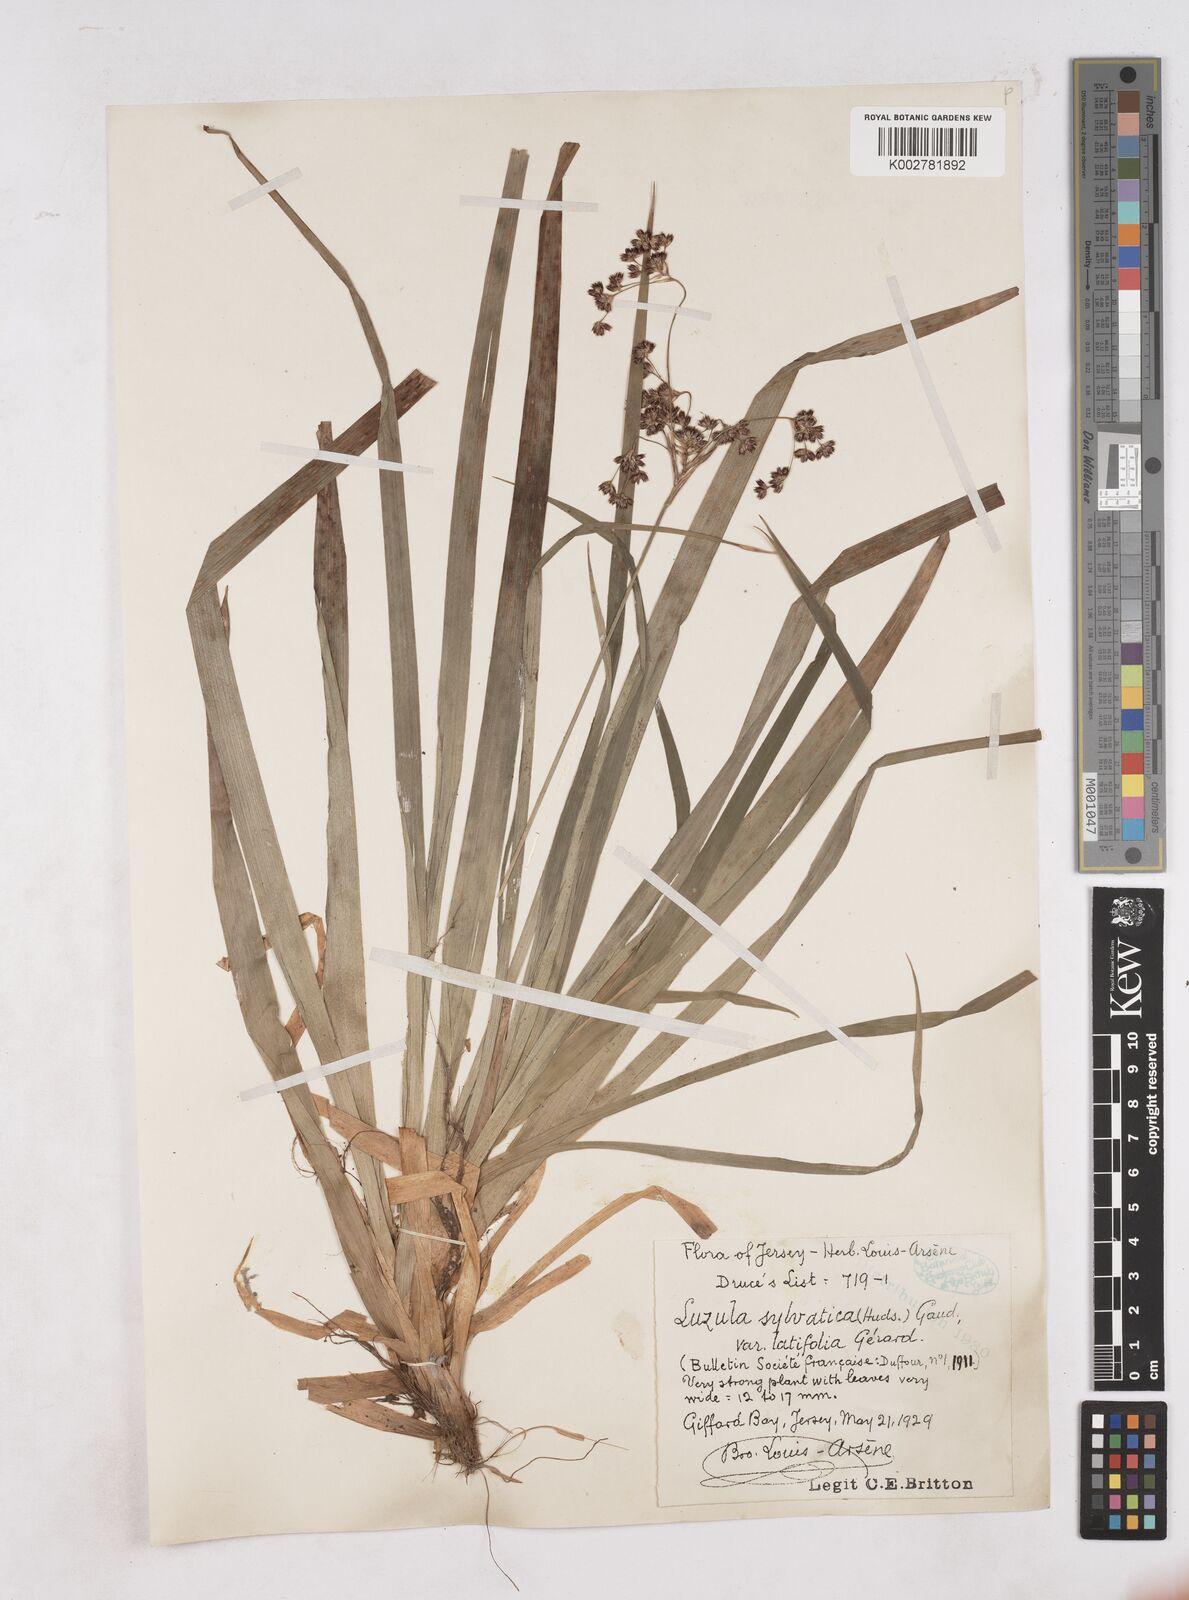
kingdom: Plantae
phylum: Tracheophyta
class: Liliopsida
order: Poales
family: Juncaceae
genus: Luzula
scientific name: Luzula sylvatica
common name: Great wood-rush
